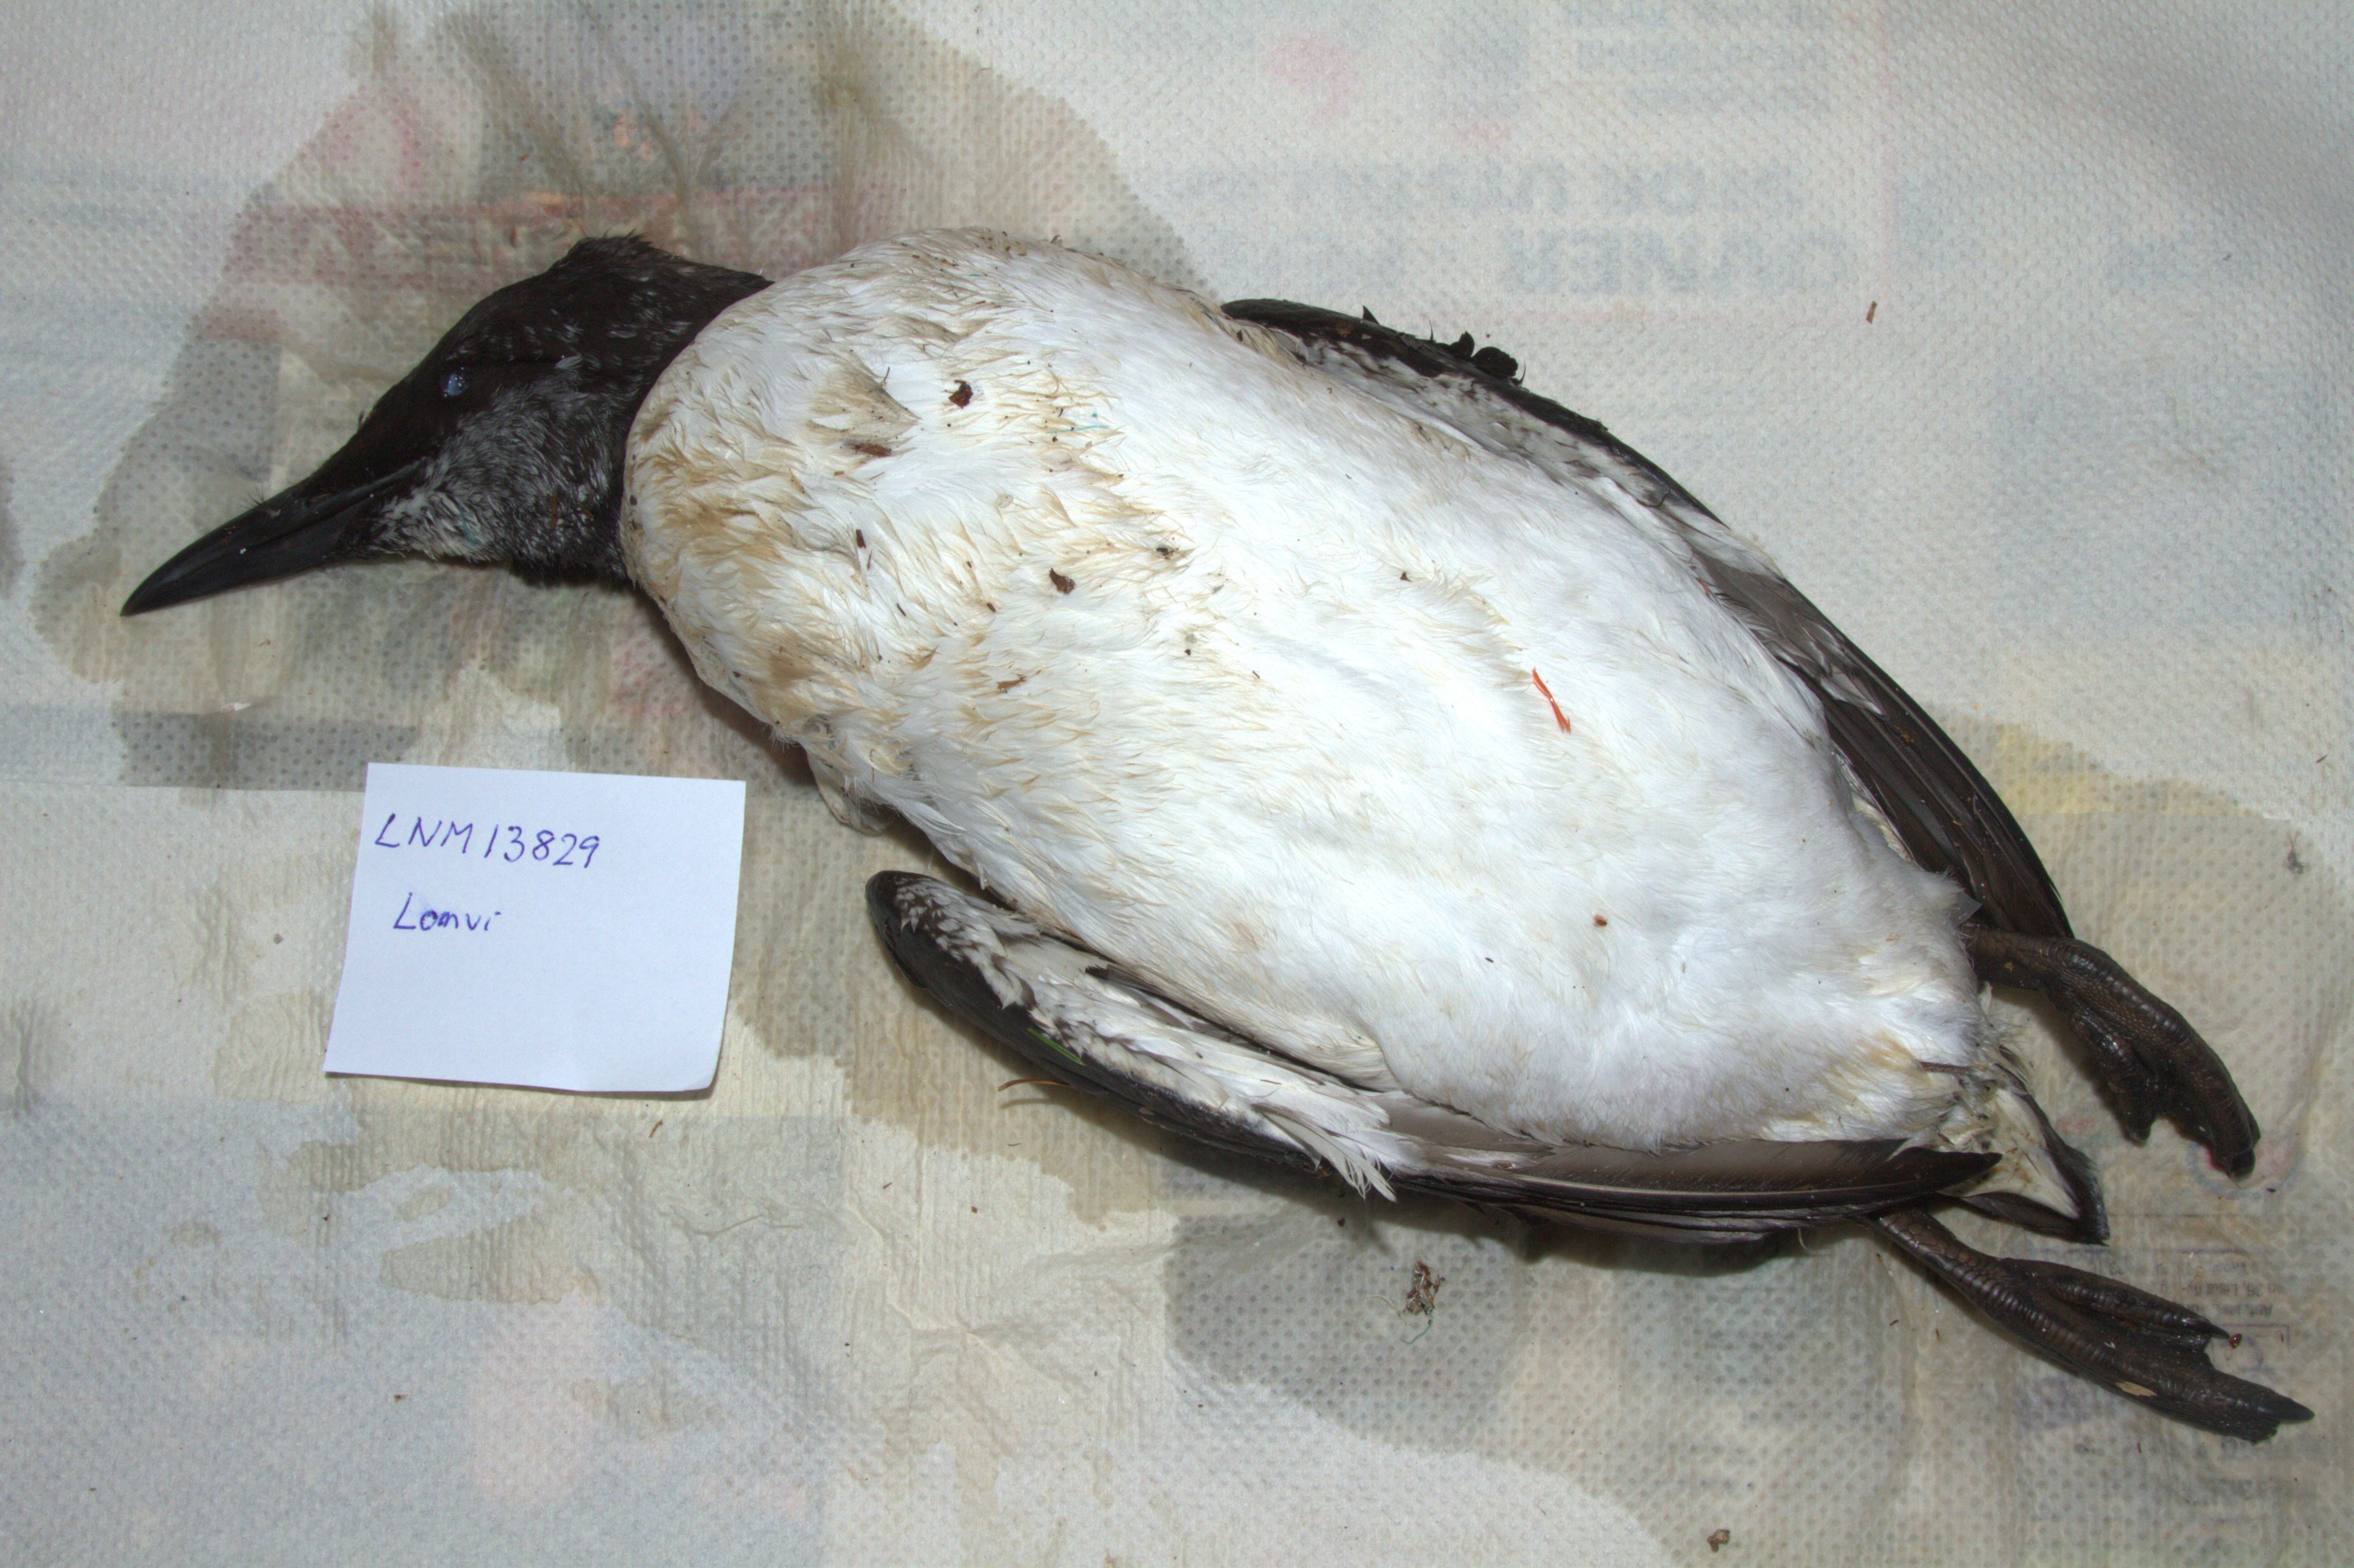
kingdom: Animalia
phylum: Chordata
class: Aves
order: Charadriiformes
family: Alcidae
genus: Uria
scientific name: Uria aalge
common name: Common murre
